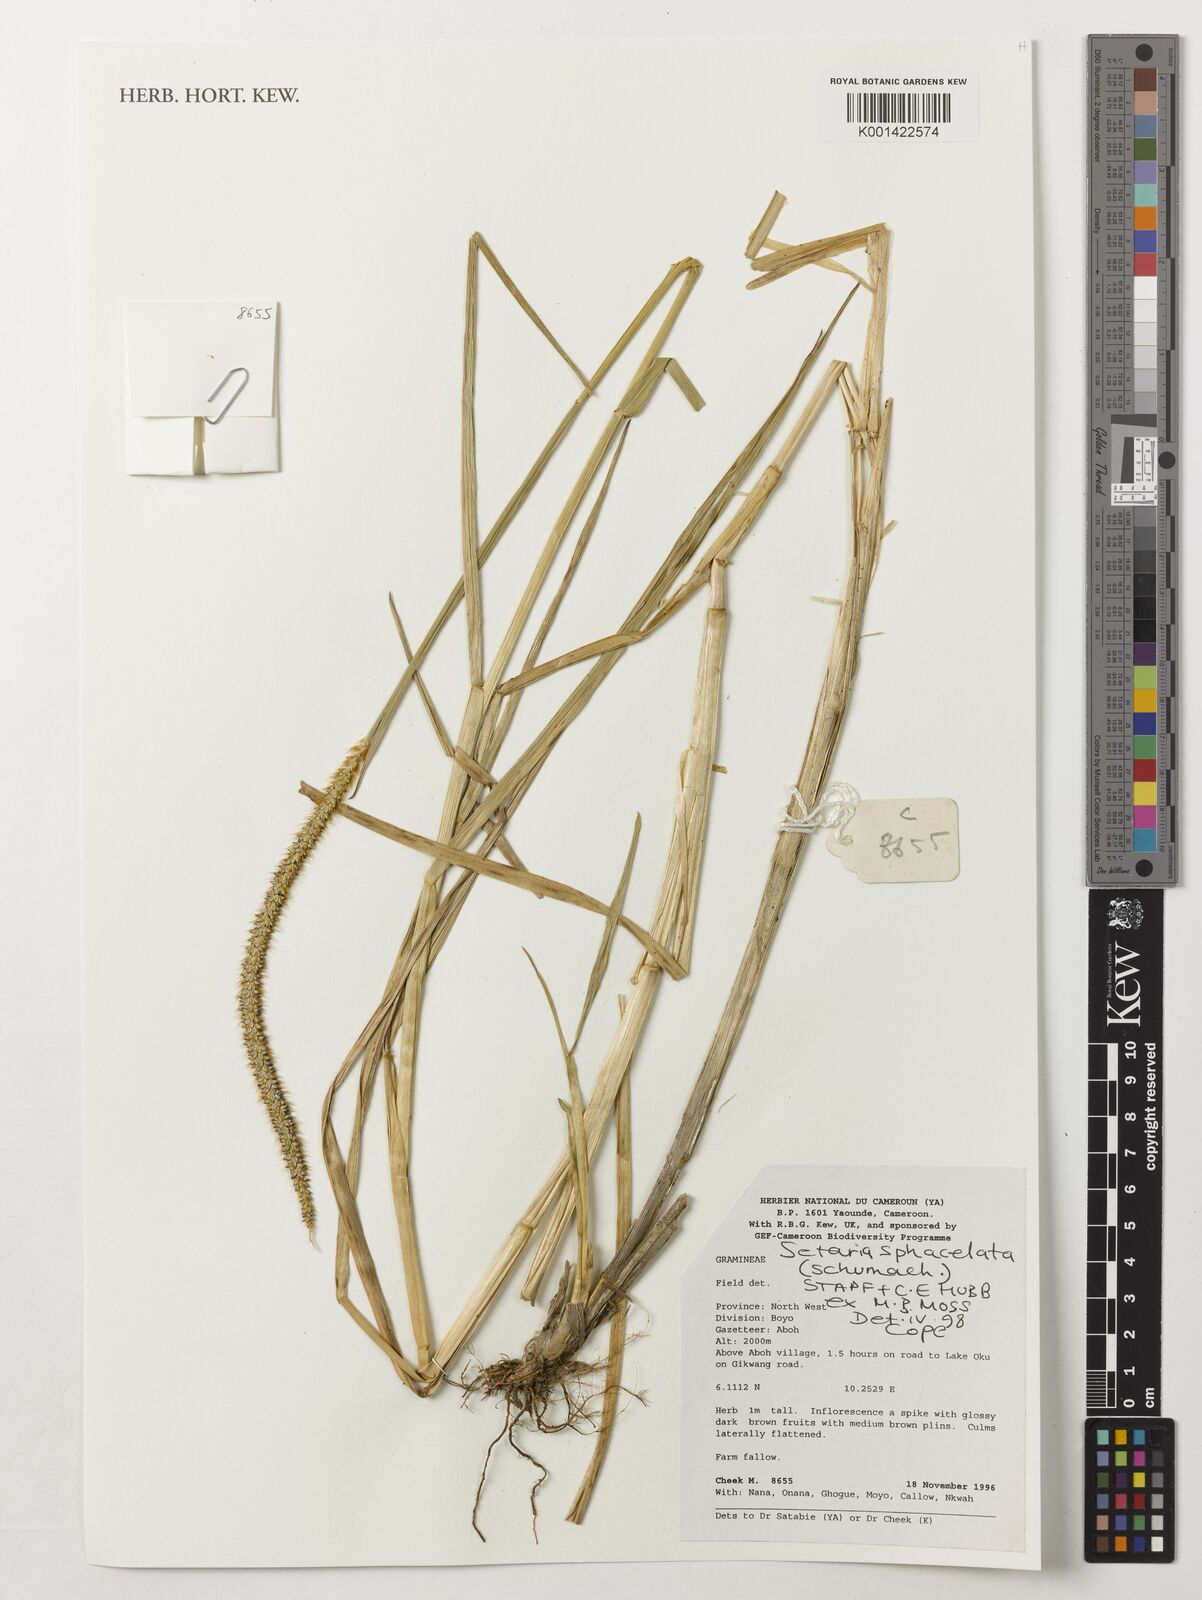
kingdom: Plantae
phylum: Tracheophyta
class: Liliopsida
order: Poales
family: Poaceae
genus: Setaria
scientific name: Setaria sphacelata
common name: African bristlegrass
